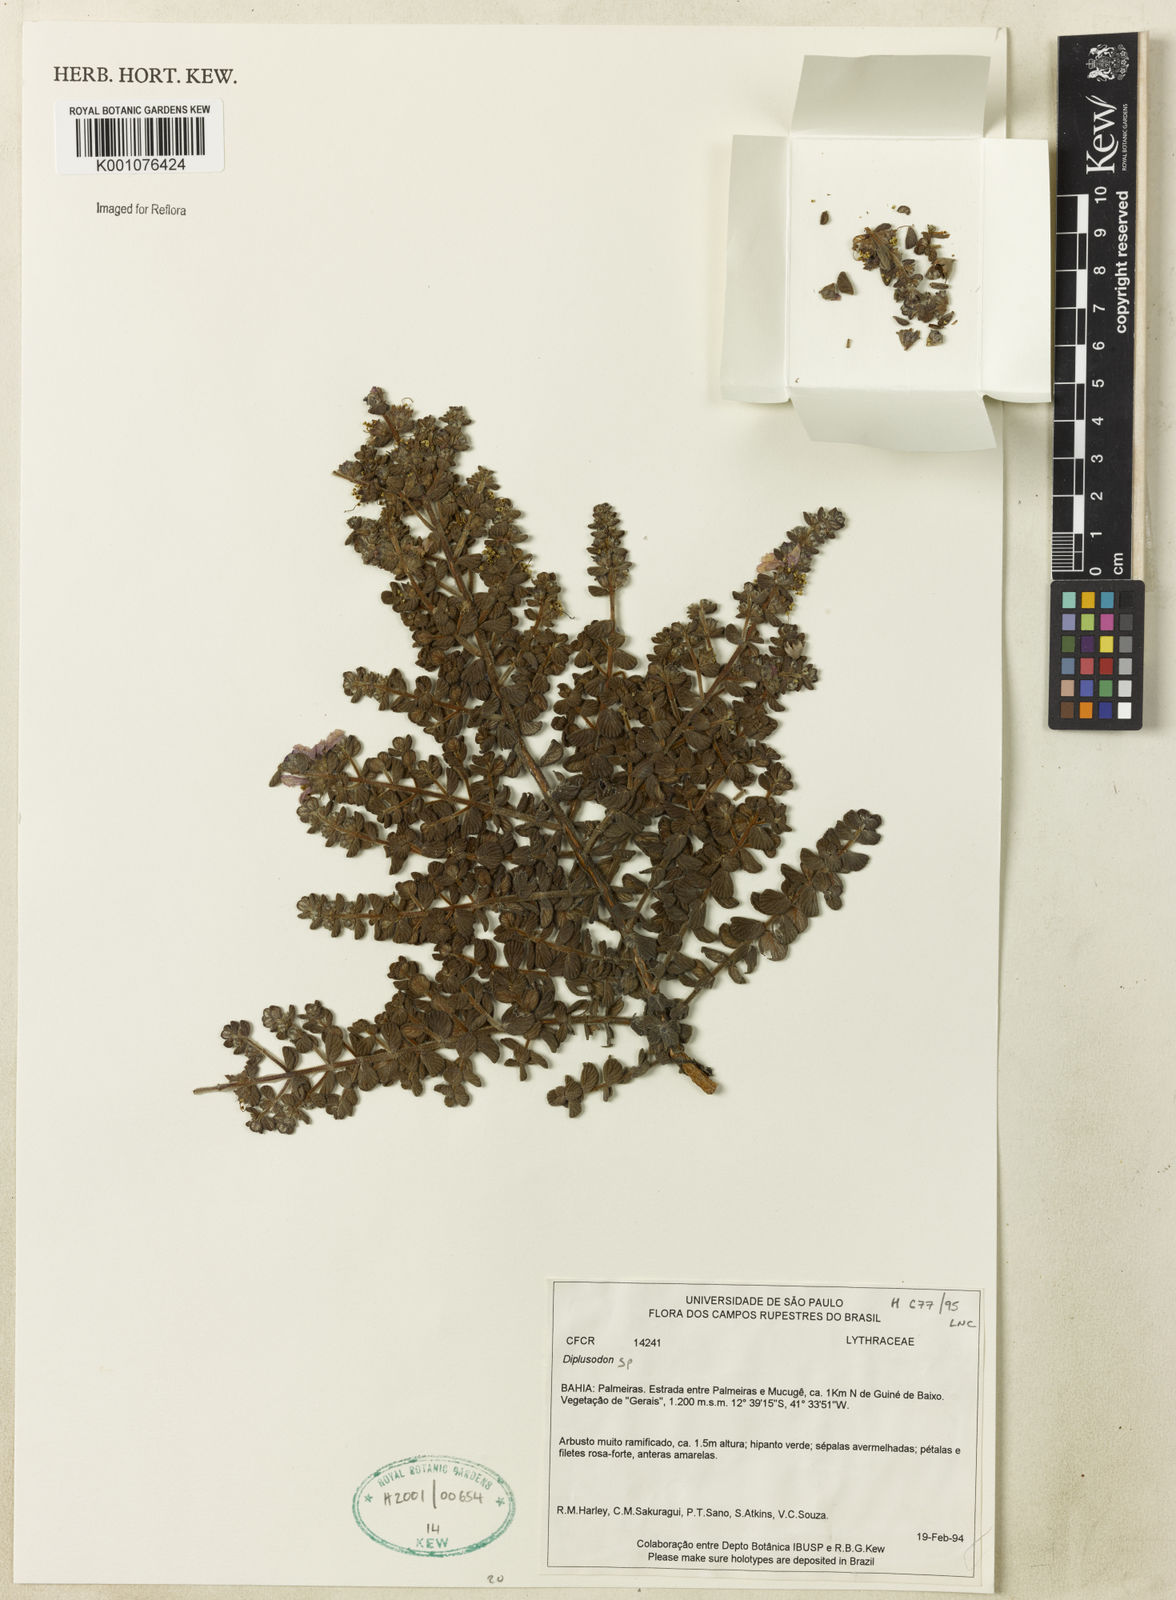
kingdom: Plantae
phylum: Tracheophyta
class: Magnoliopsida
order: Myrtales
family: Lythraceae
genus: Diplusodon
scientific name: Diplusodon
